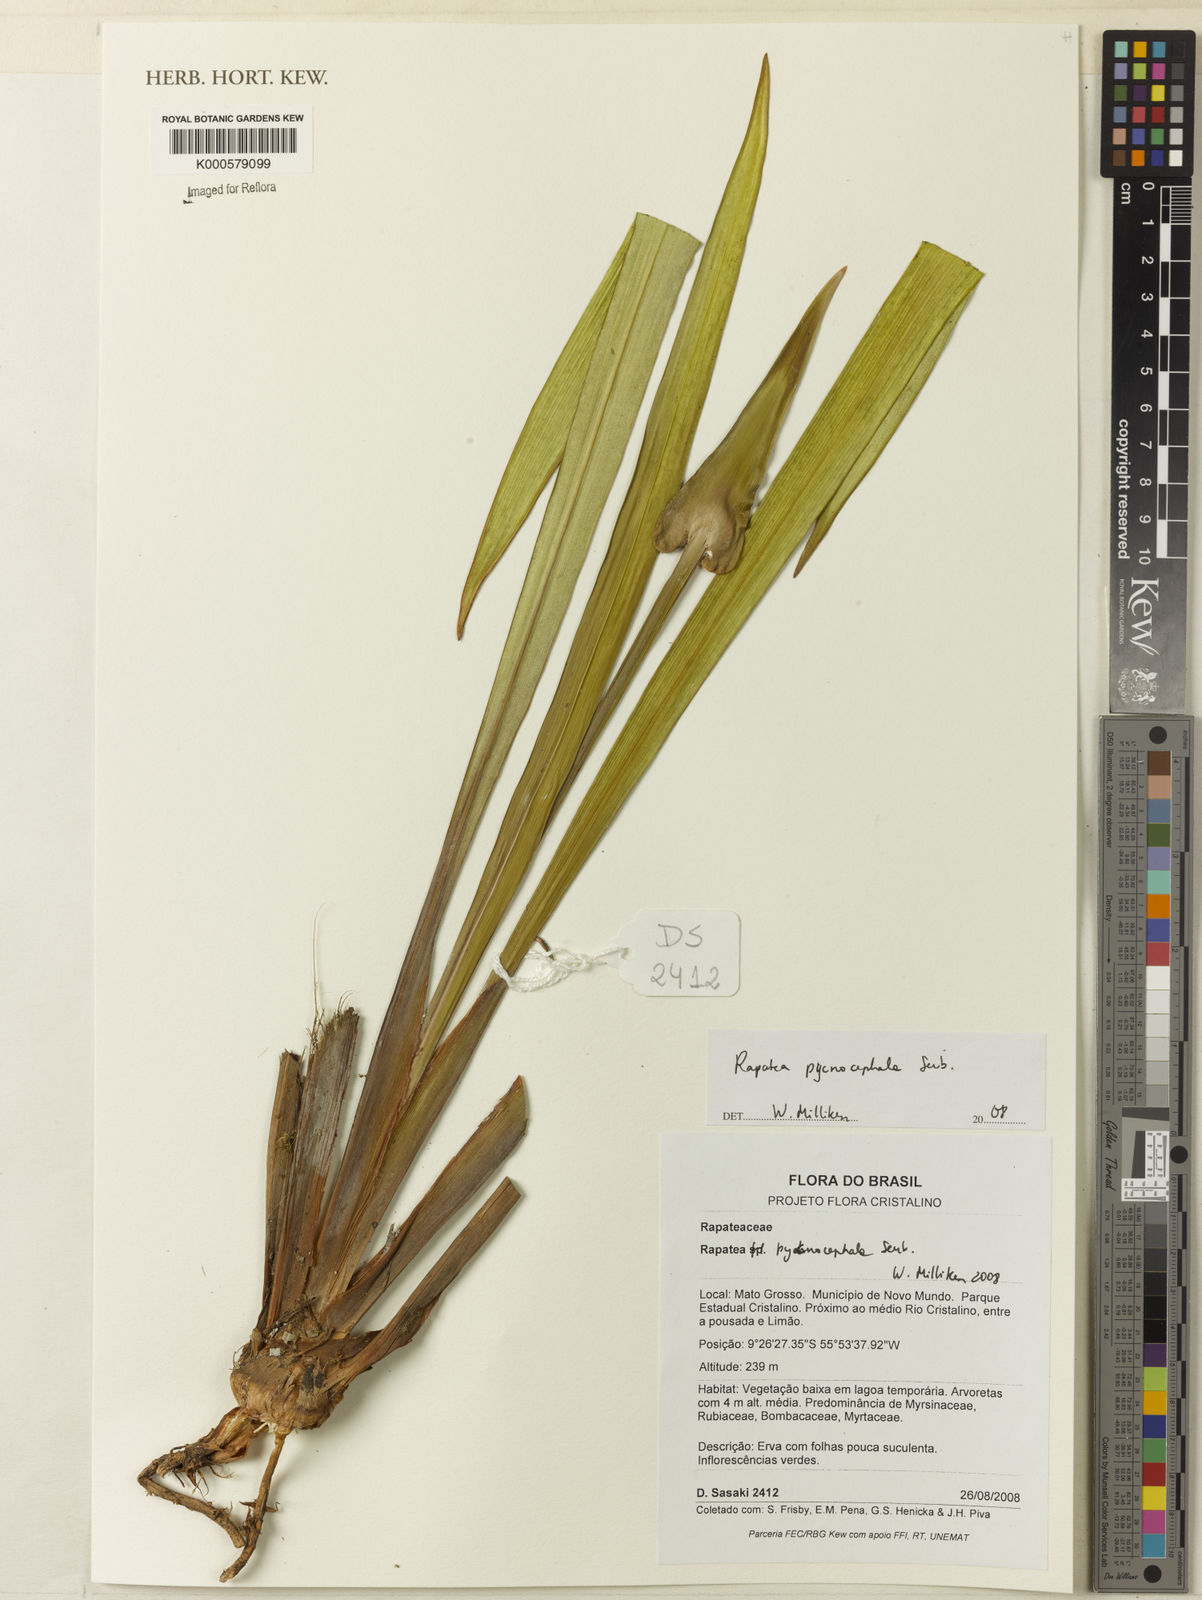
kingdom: Plantae
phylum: Tracheophyta
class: Liliopsida
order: Poales
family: Rapateaceae
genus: Rapatea
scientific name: Rapatea pycnocephala
